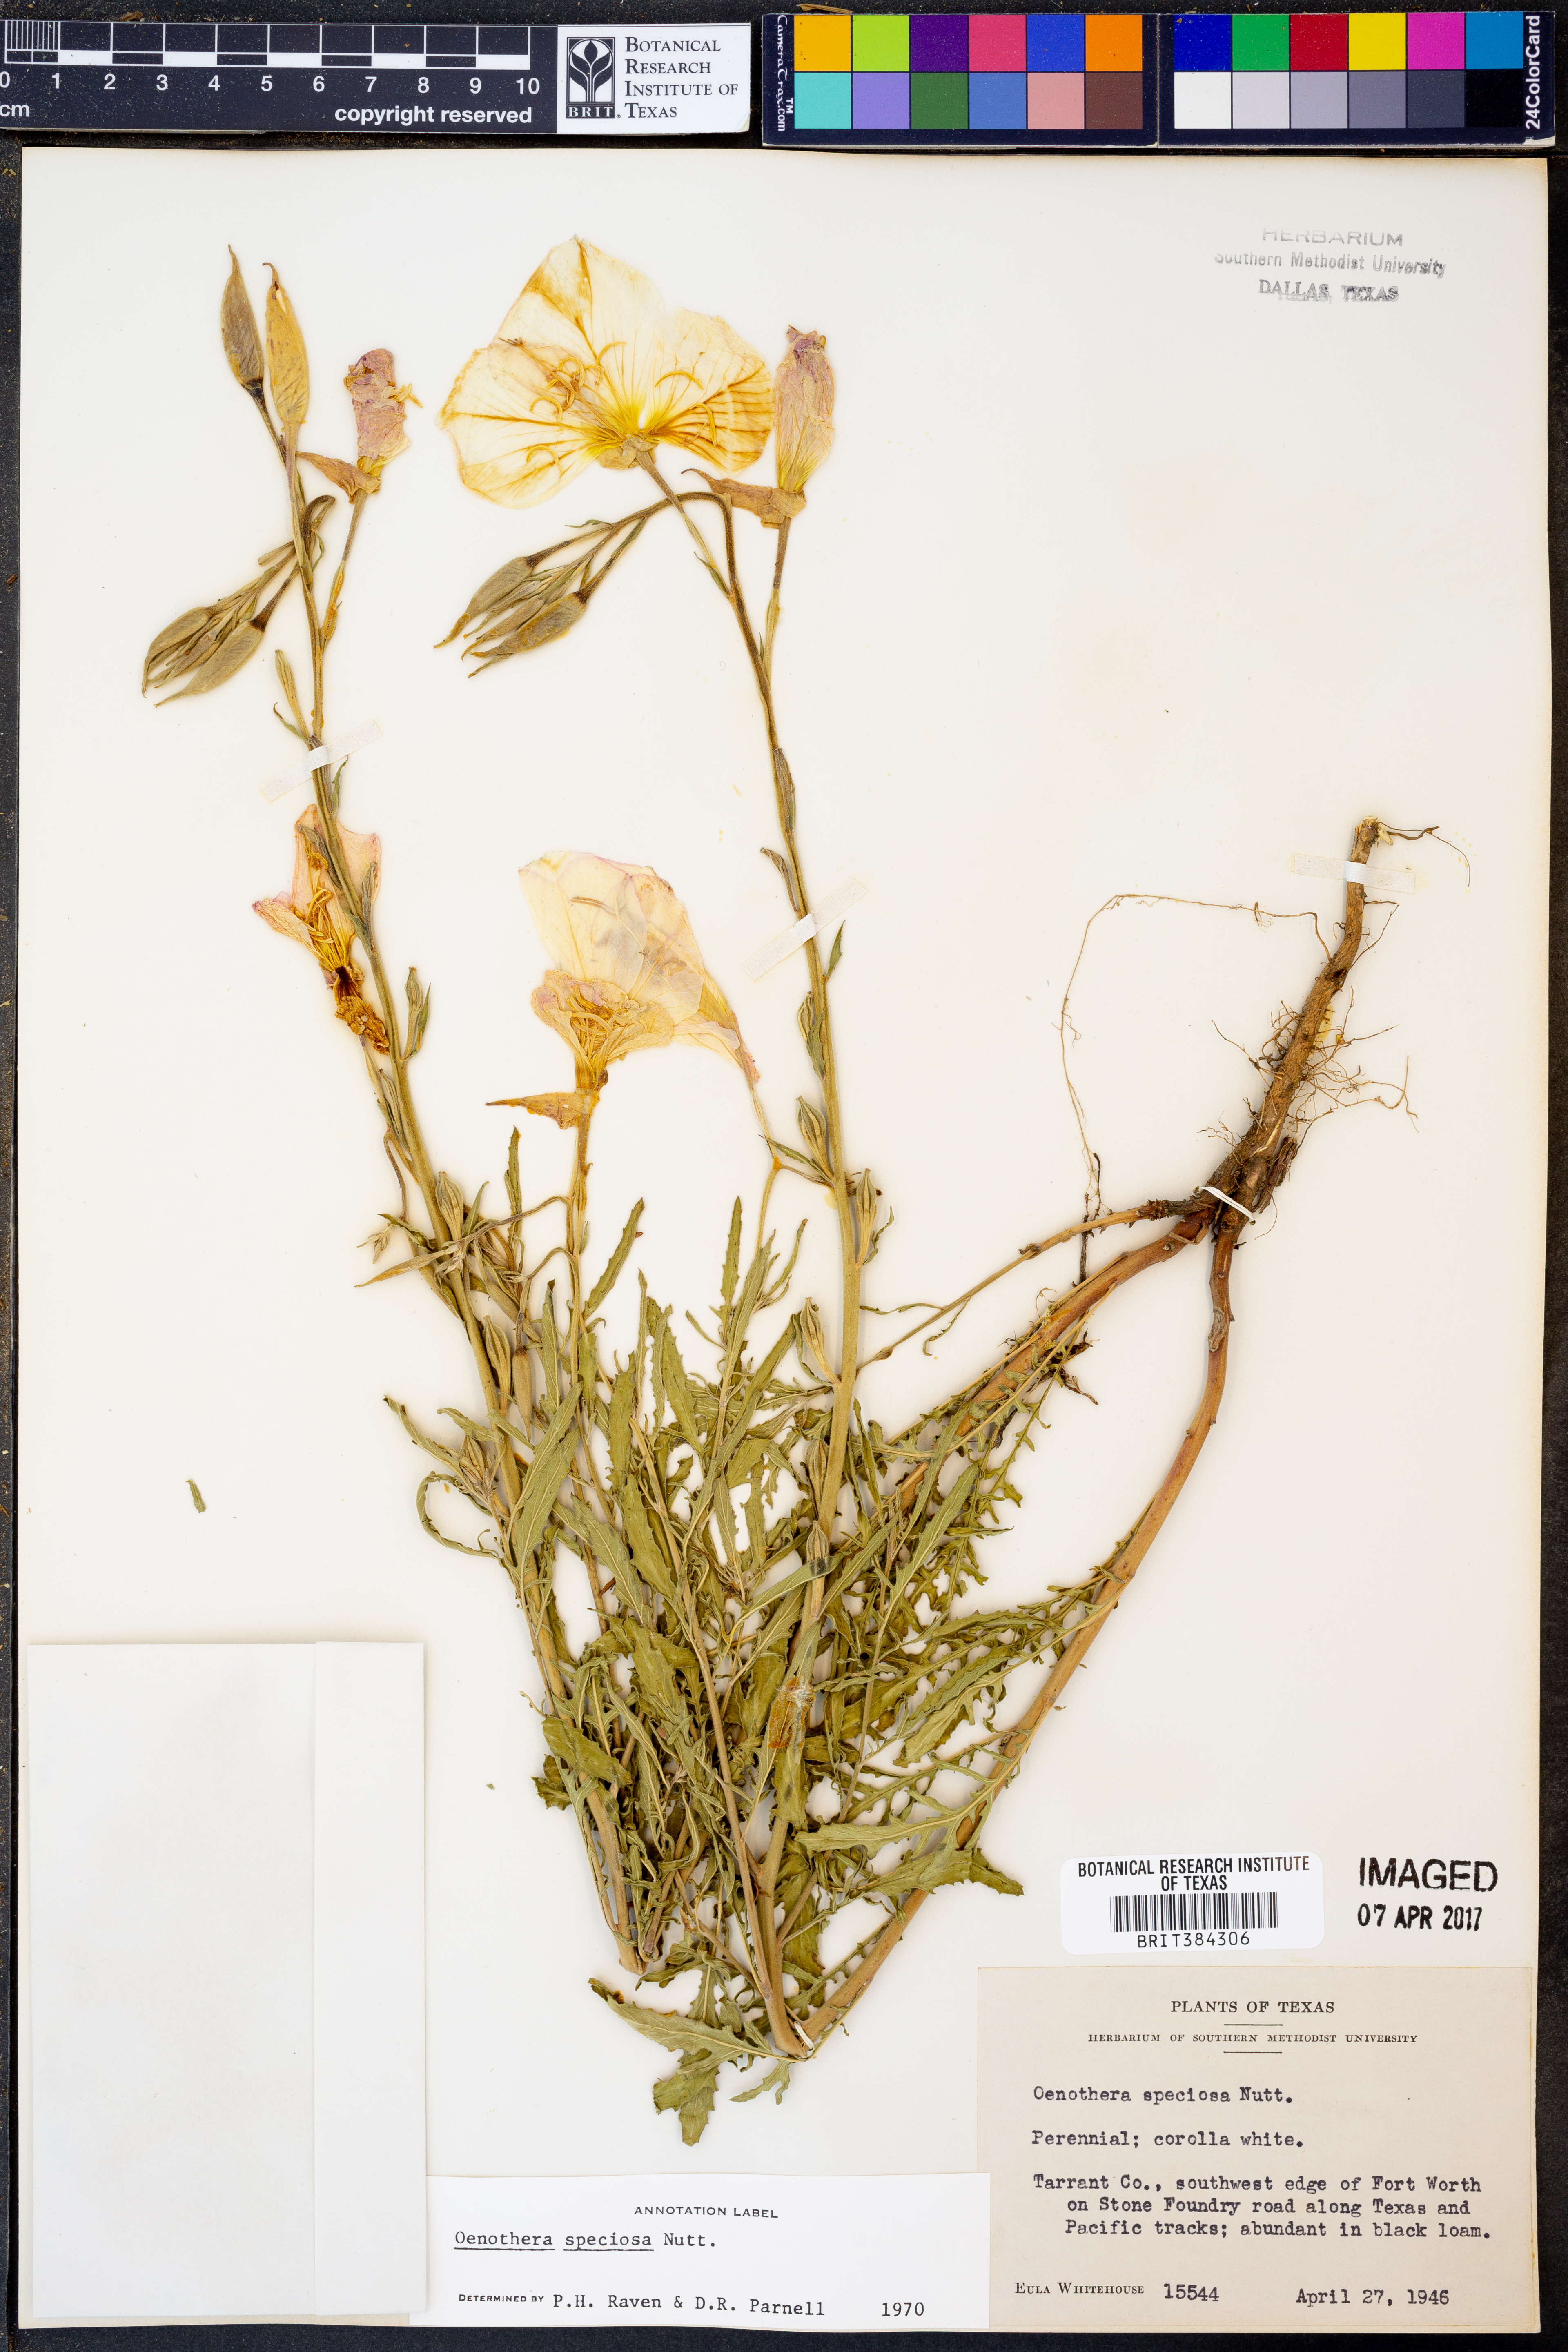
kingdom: Plantae
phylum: Tracheophyta
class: Magnoliopsida
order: Myrtales
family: Onagraceae
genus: Oenothera
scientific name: Oenothera speciosa
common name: White evening-primrose
